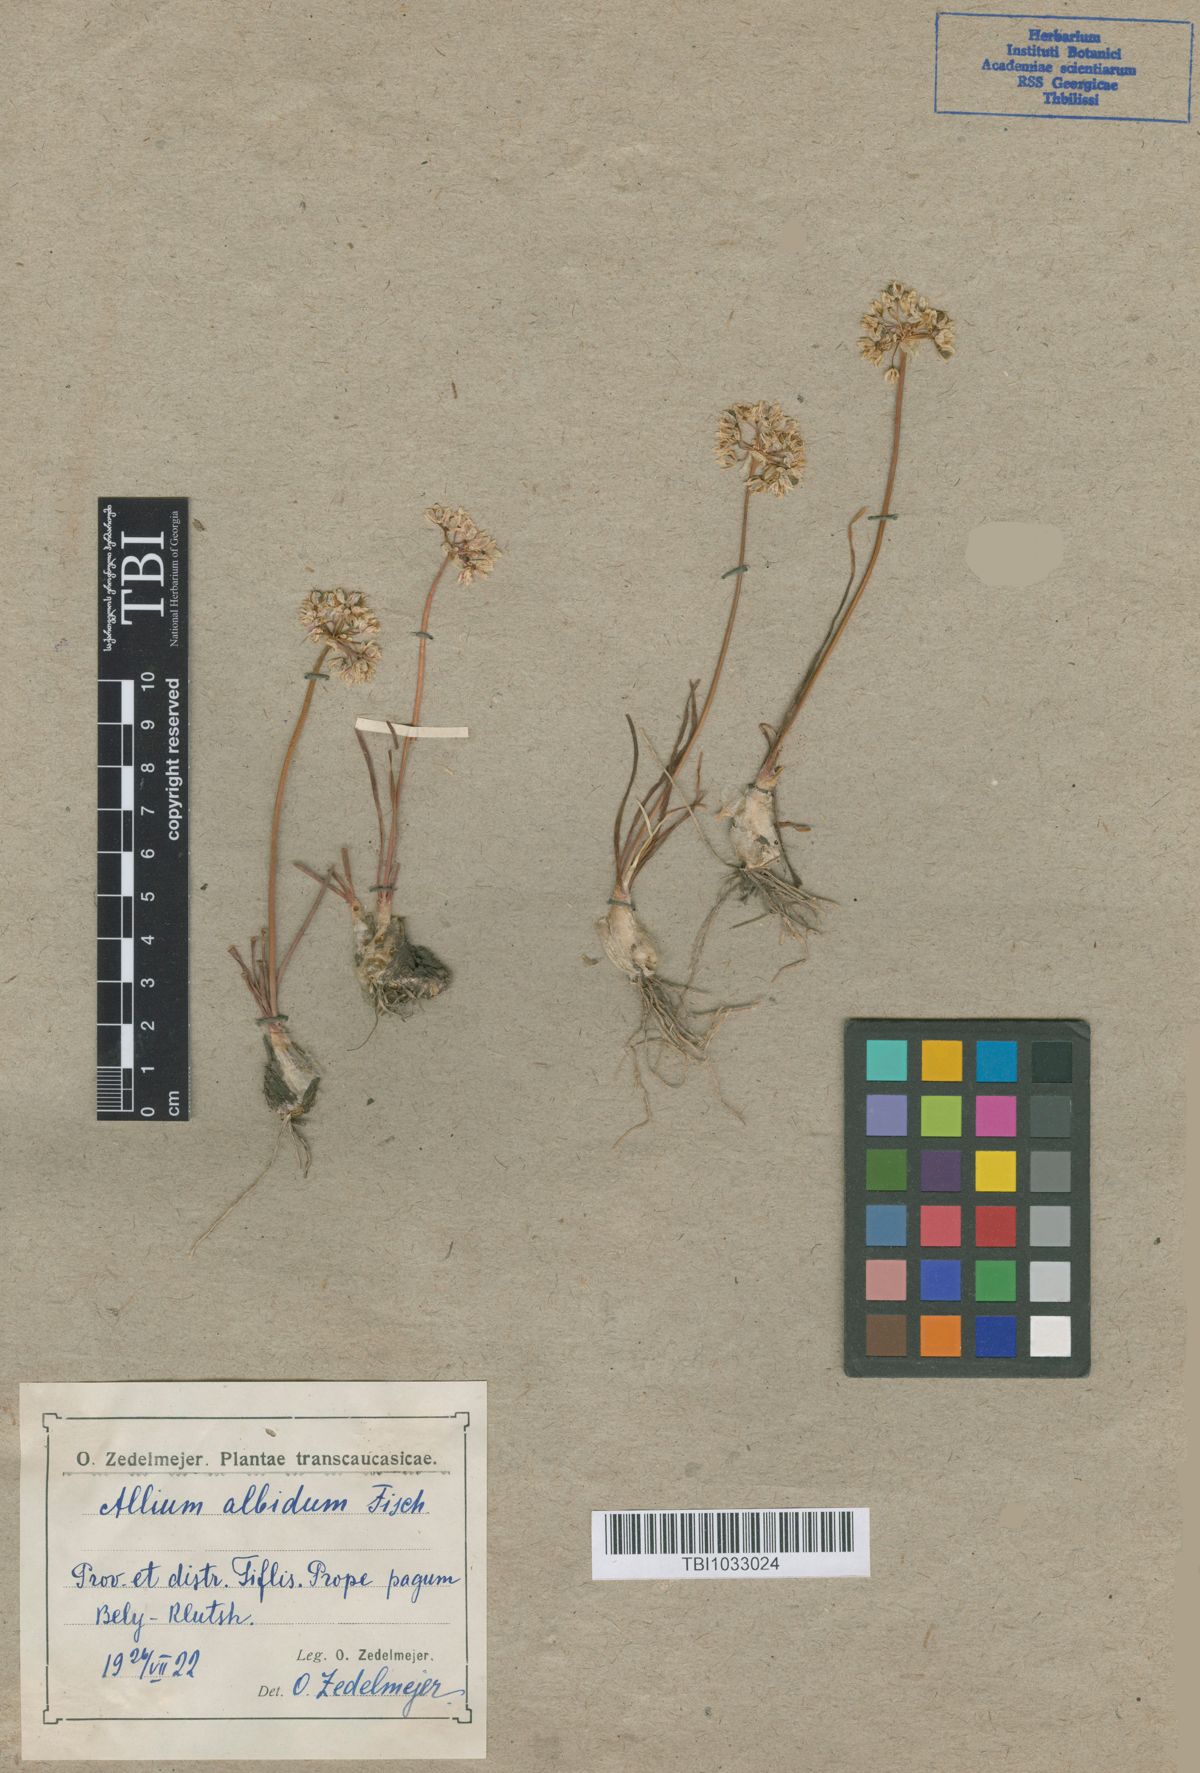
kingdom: Plantae
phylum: Tracheophyta
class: Liliopsida
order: Asparagales
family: Amaryllidaceae
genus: Allium
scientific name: Allium denudatum
